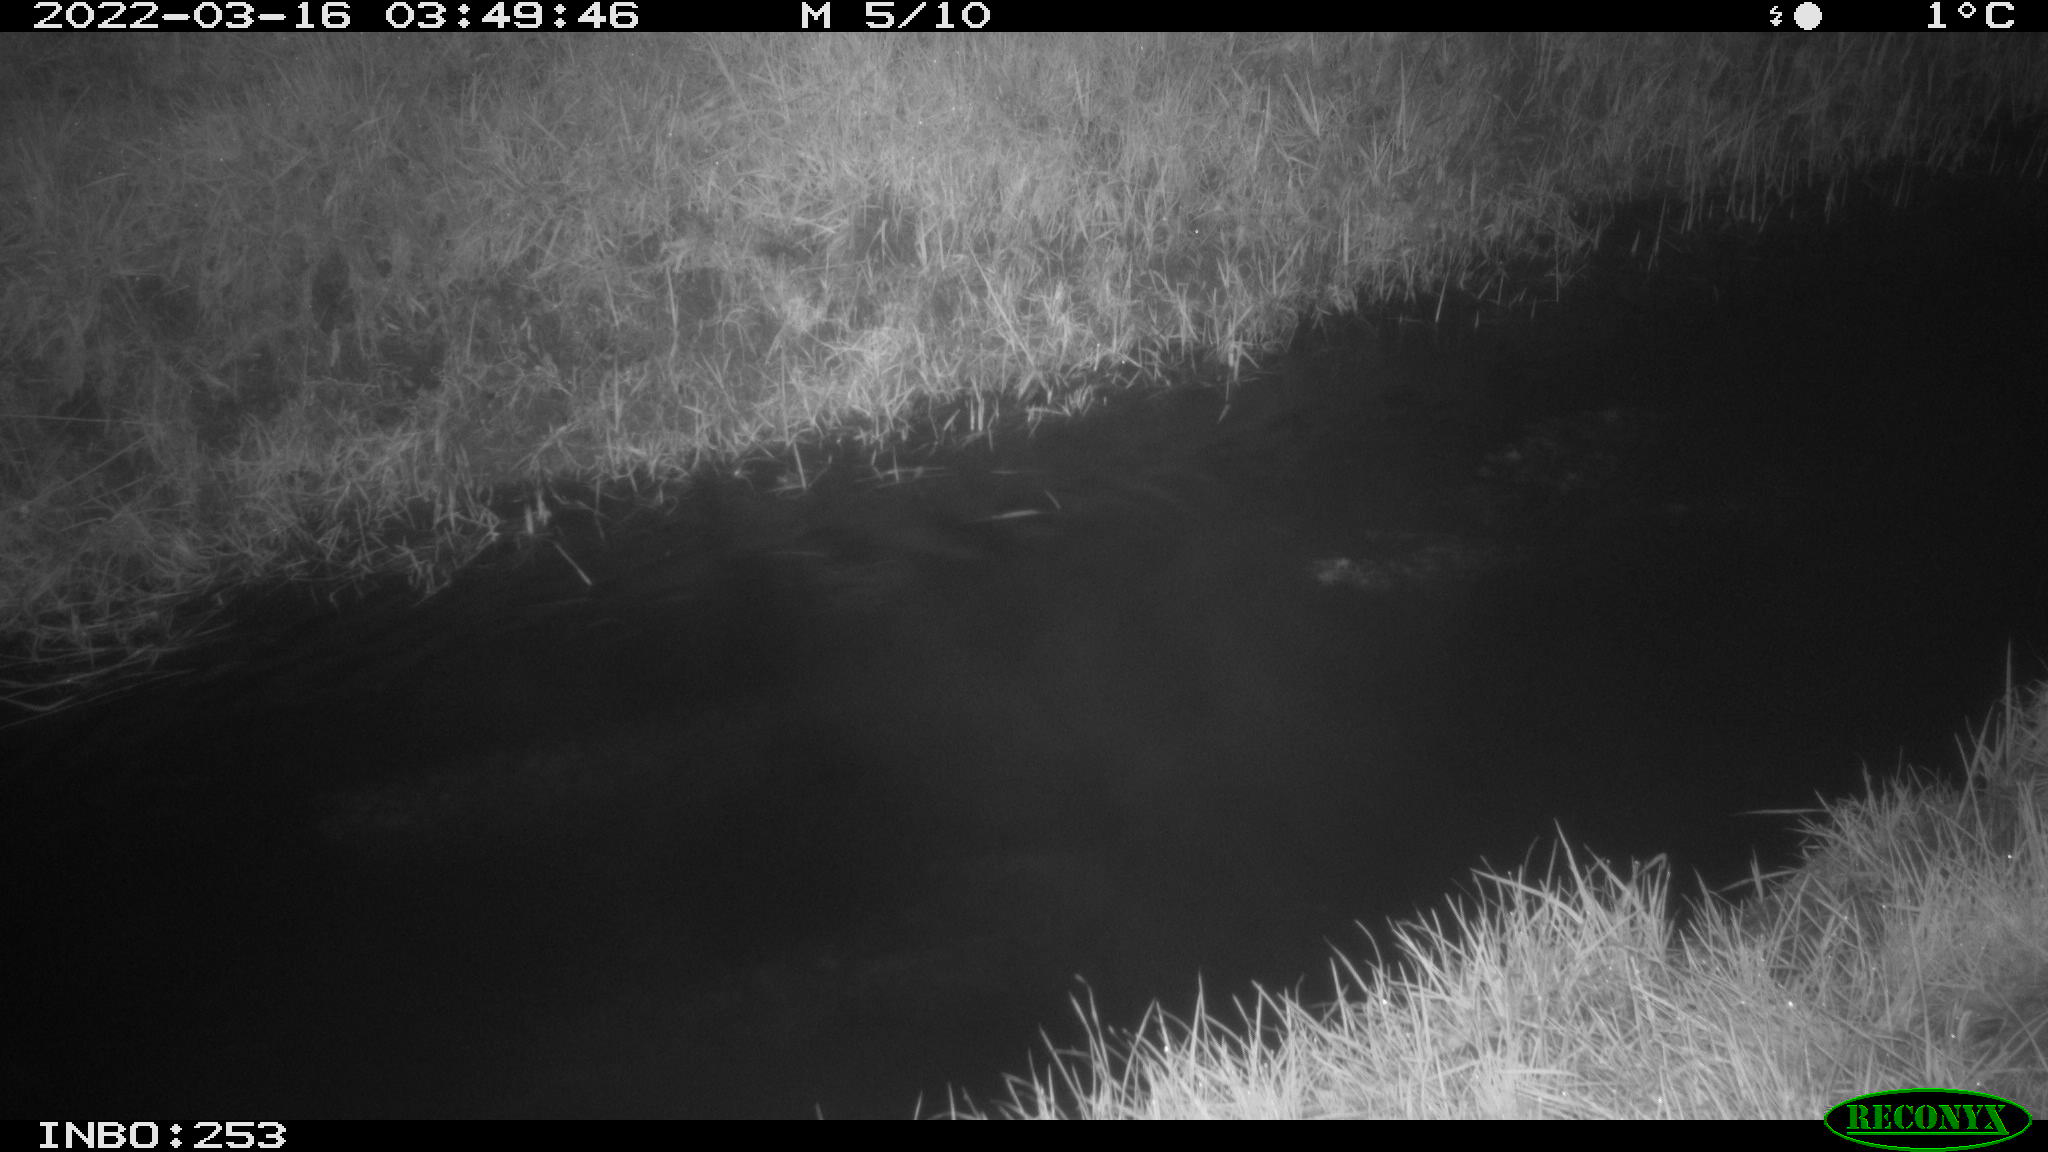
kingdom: Animalia
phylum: Chordata
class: Aves
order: Anseriformes
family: Anatidae
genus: Anas
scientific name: Anas platyrhynchos
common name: Mallard
